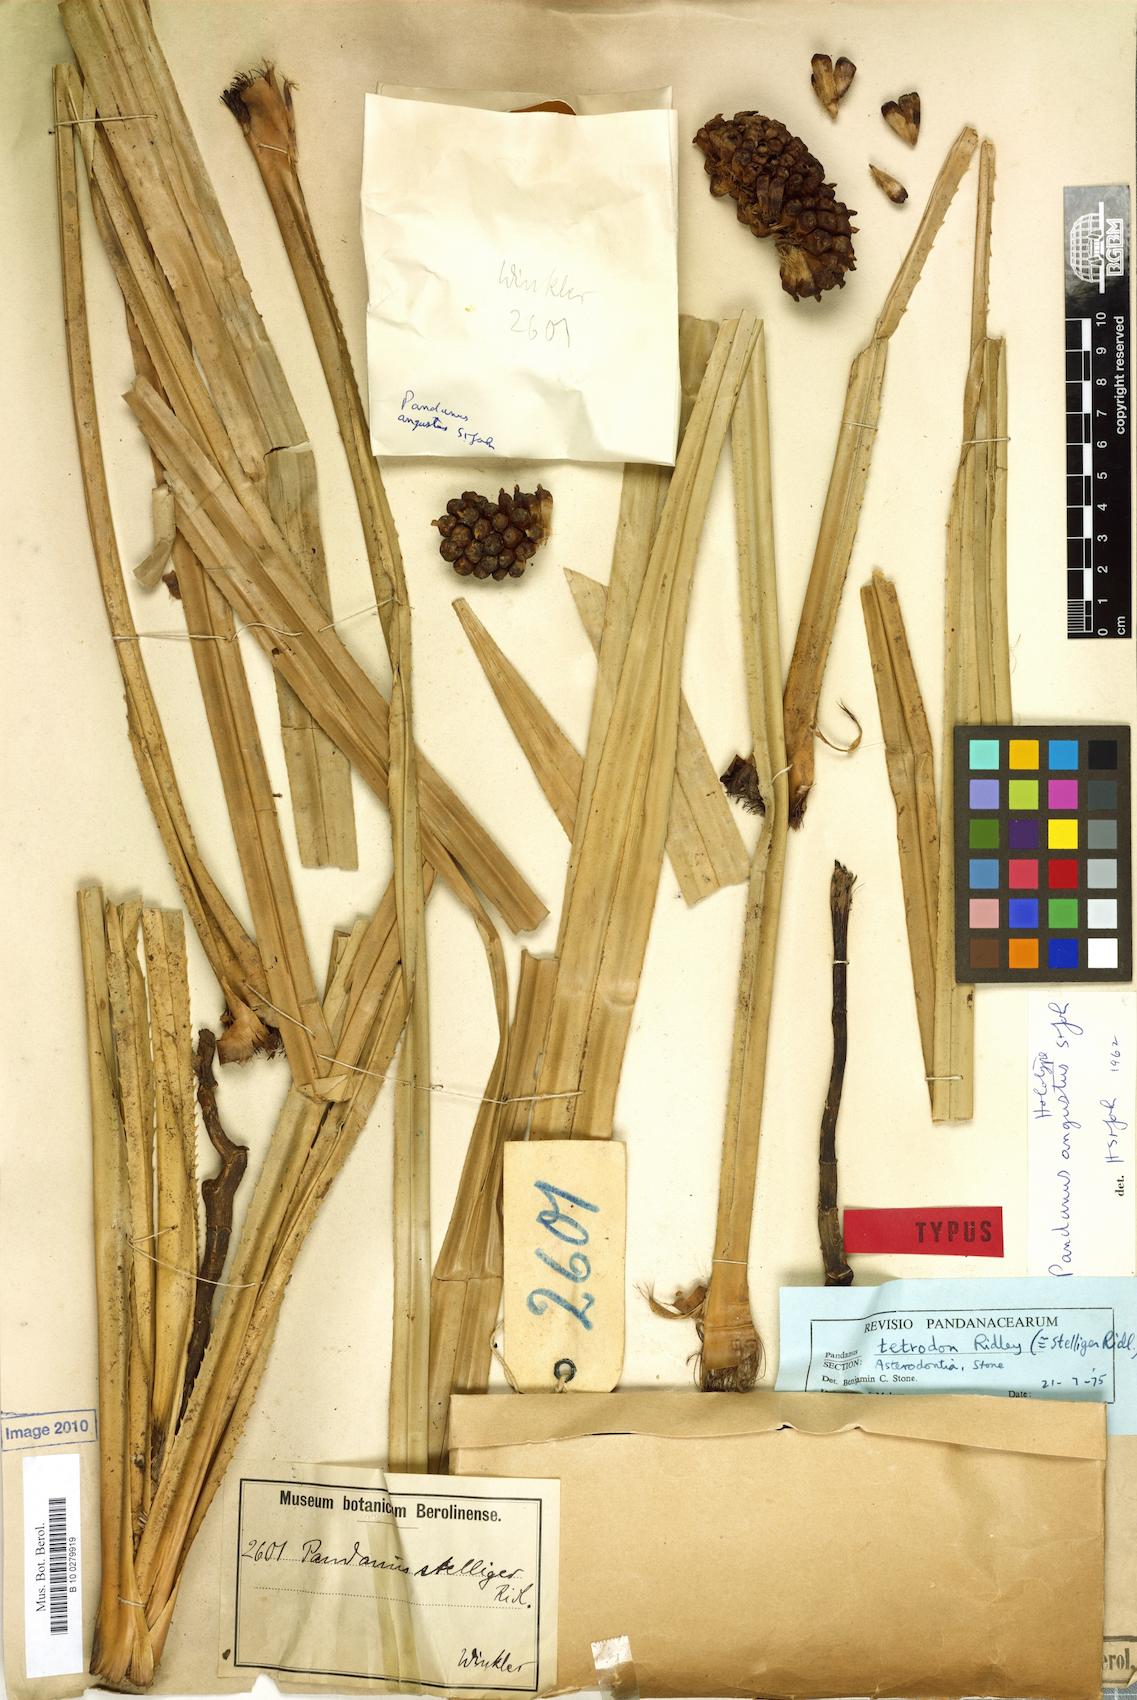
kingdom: Plantae
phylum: Tracheophyta
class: Liliopsida
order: Pandanales
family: Pandanaceae
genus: Pandanus
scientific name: Pandanus borneensis
